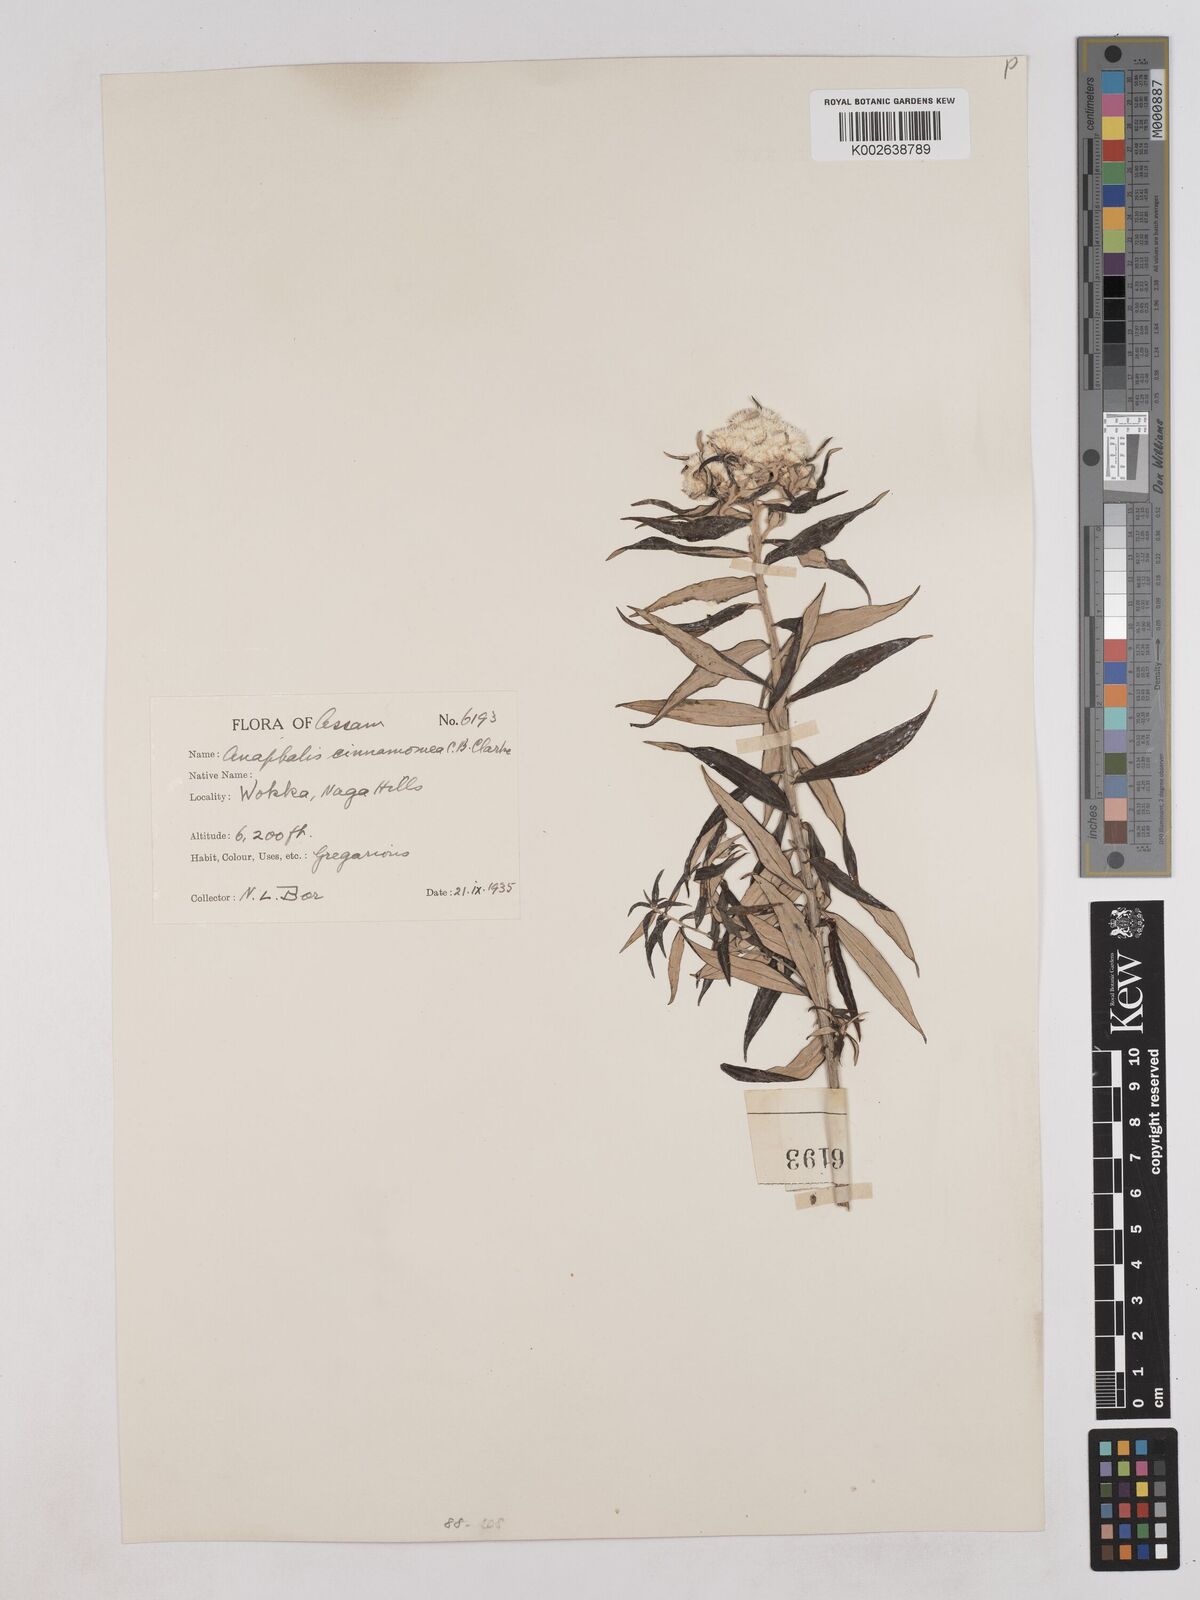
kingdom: Plantae
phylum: Tracheophyta
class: Magnoliopsida
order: Asterales
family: Asteraceae
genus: Anaphalis
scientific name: Anaphalis marcescens
